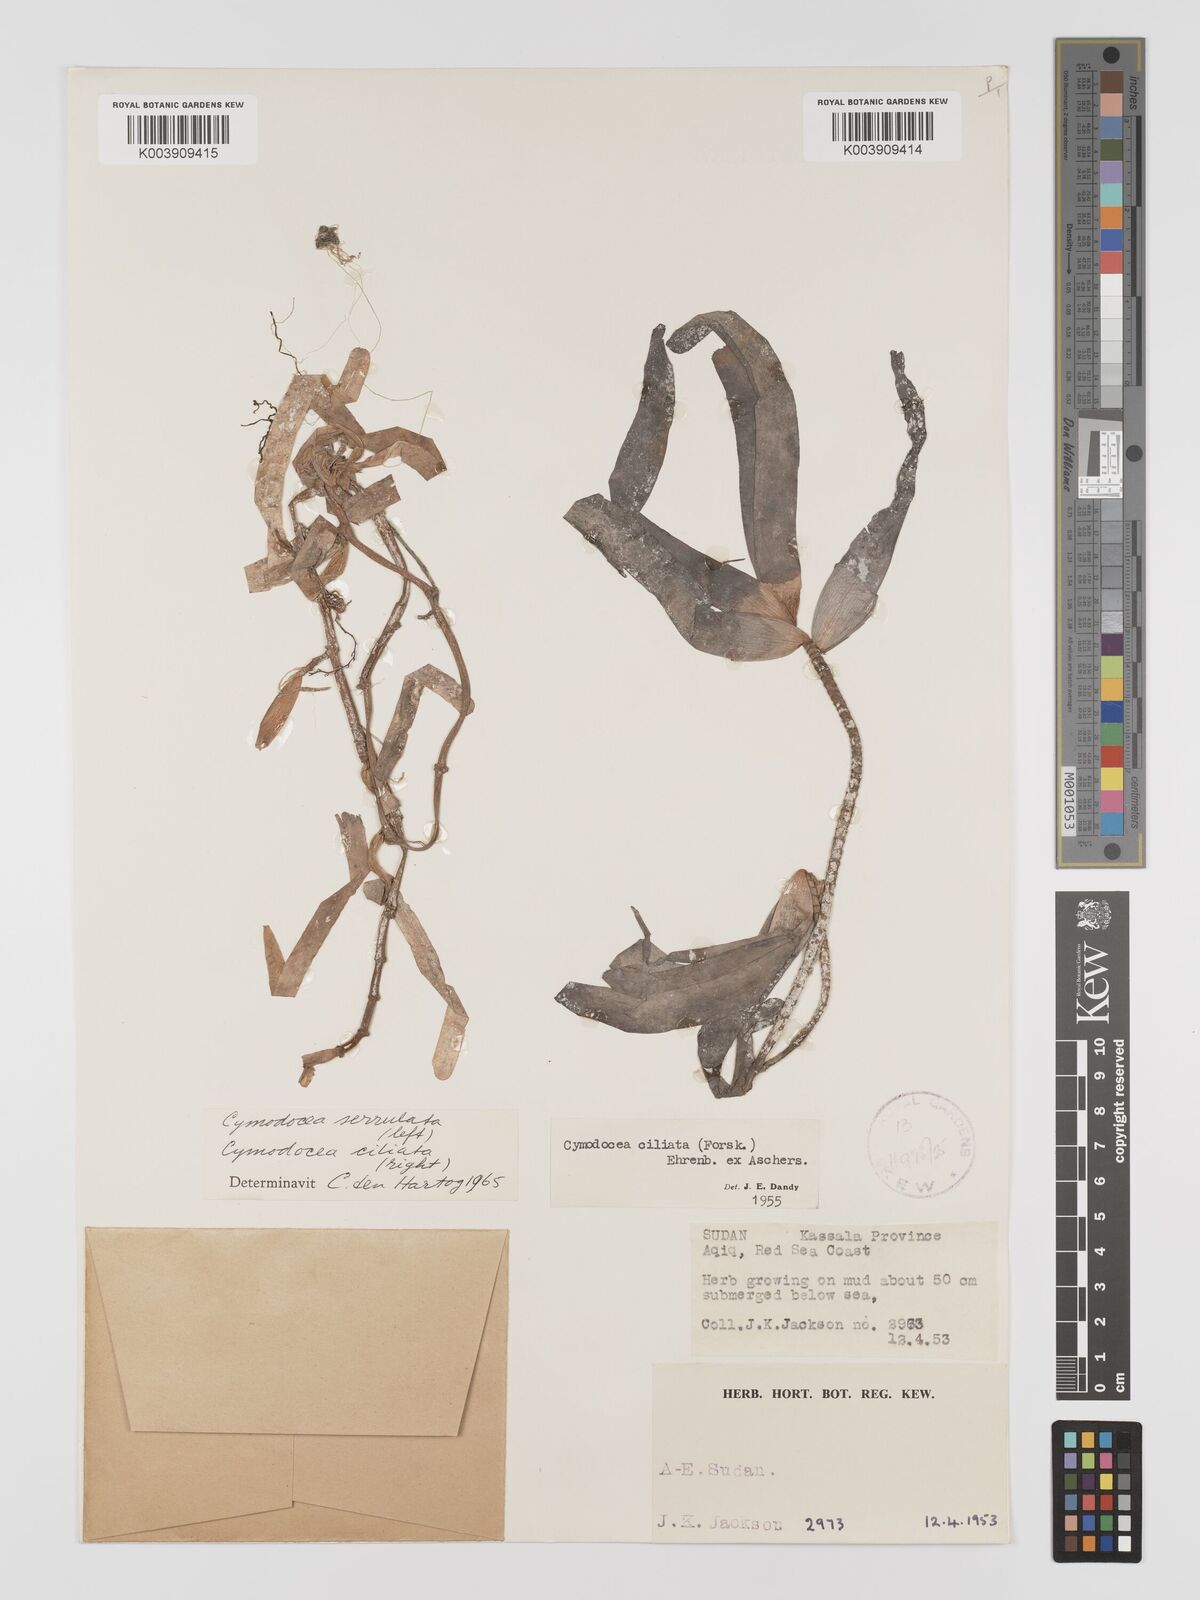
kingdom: Plantae
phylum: Tracheophyta
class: Liliopsida
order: Alismatales
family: Cymodoceaceae
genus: Oceana
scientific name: Oceana serrulata
